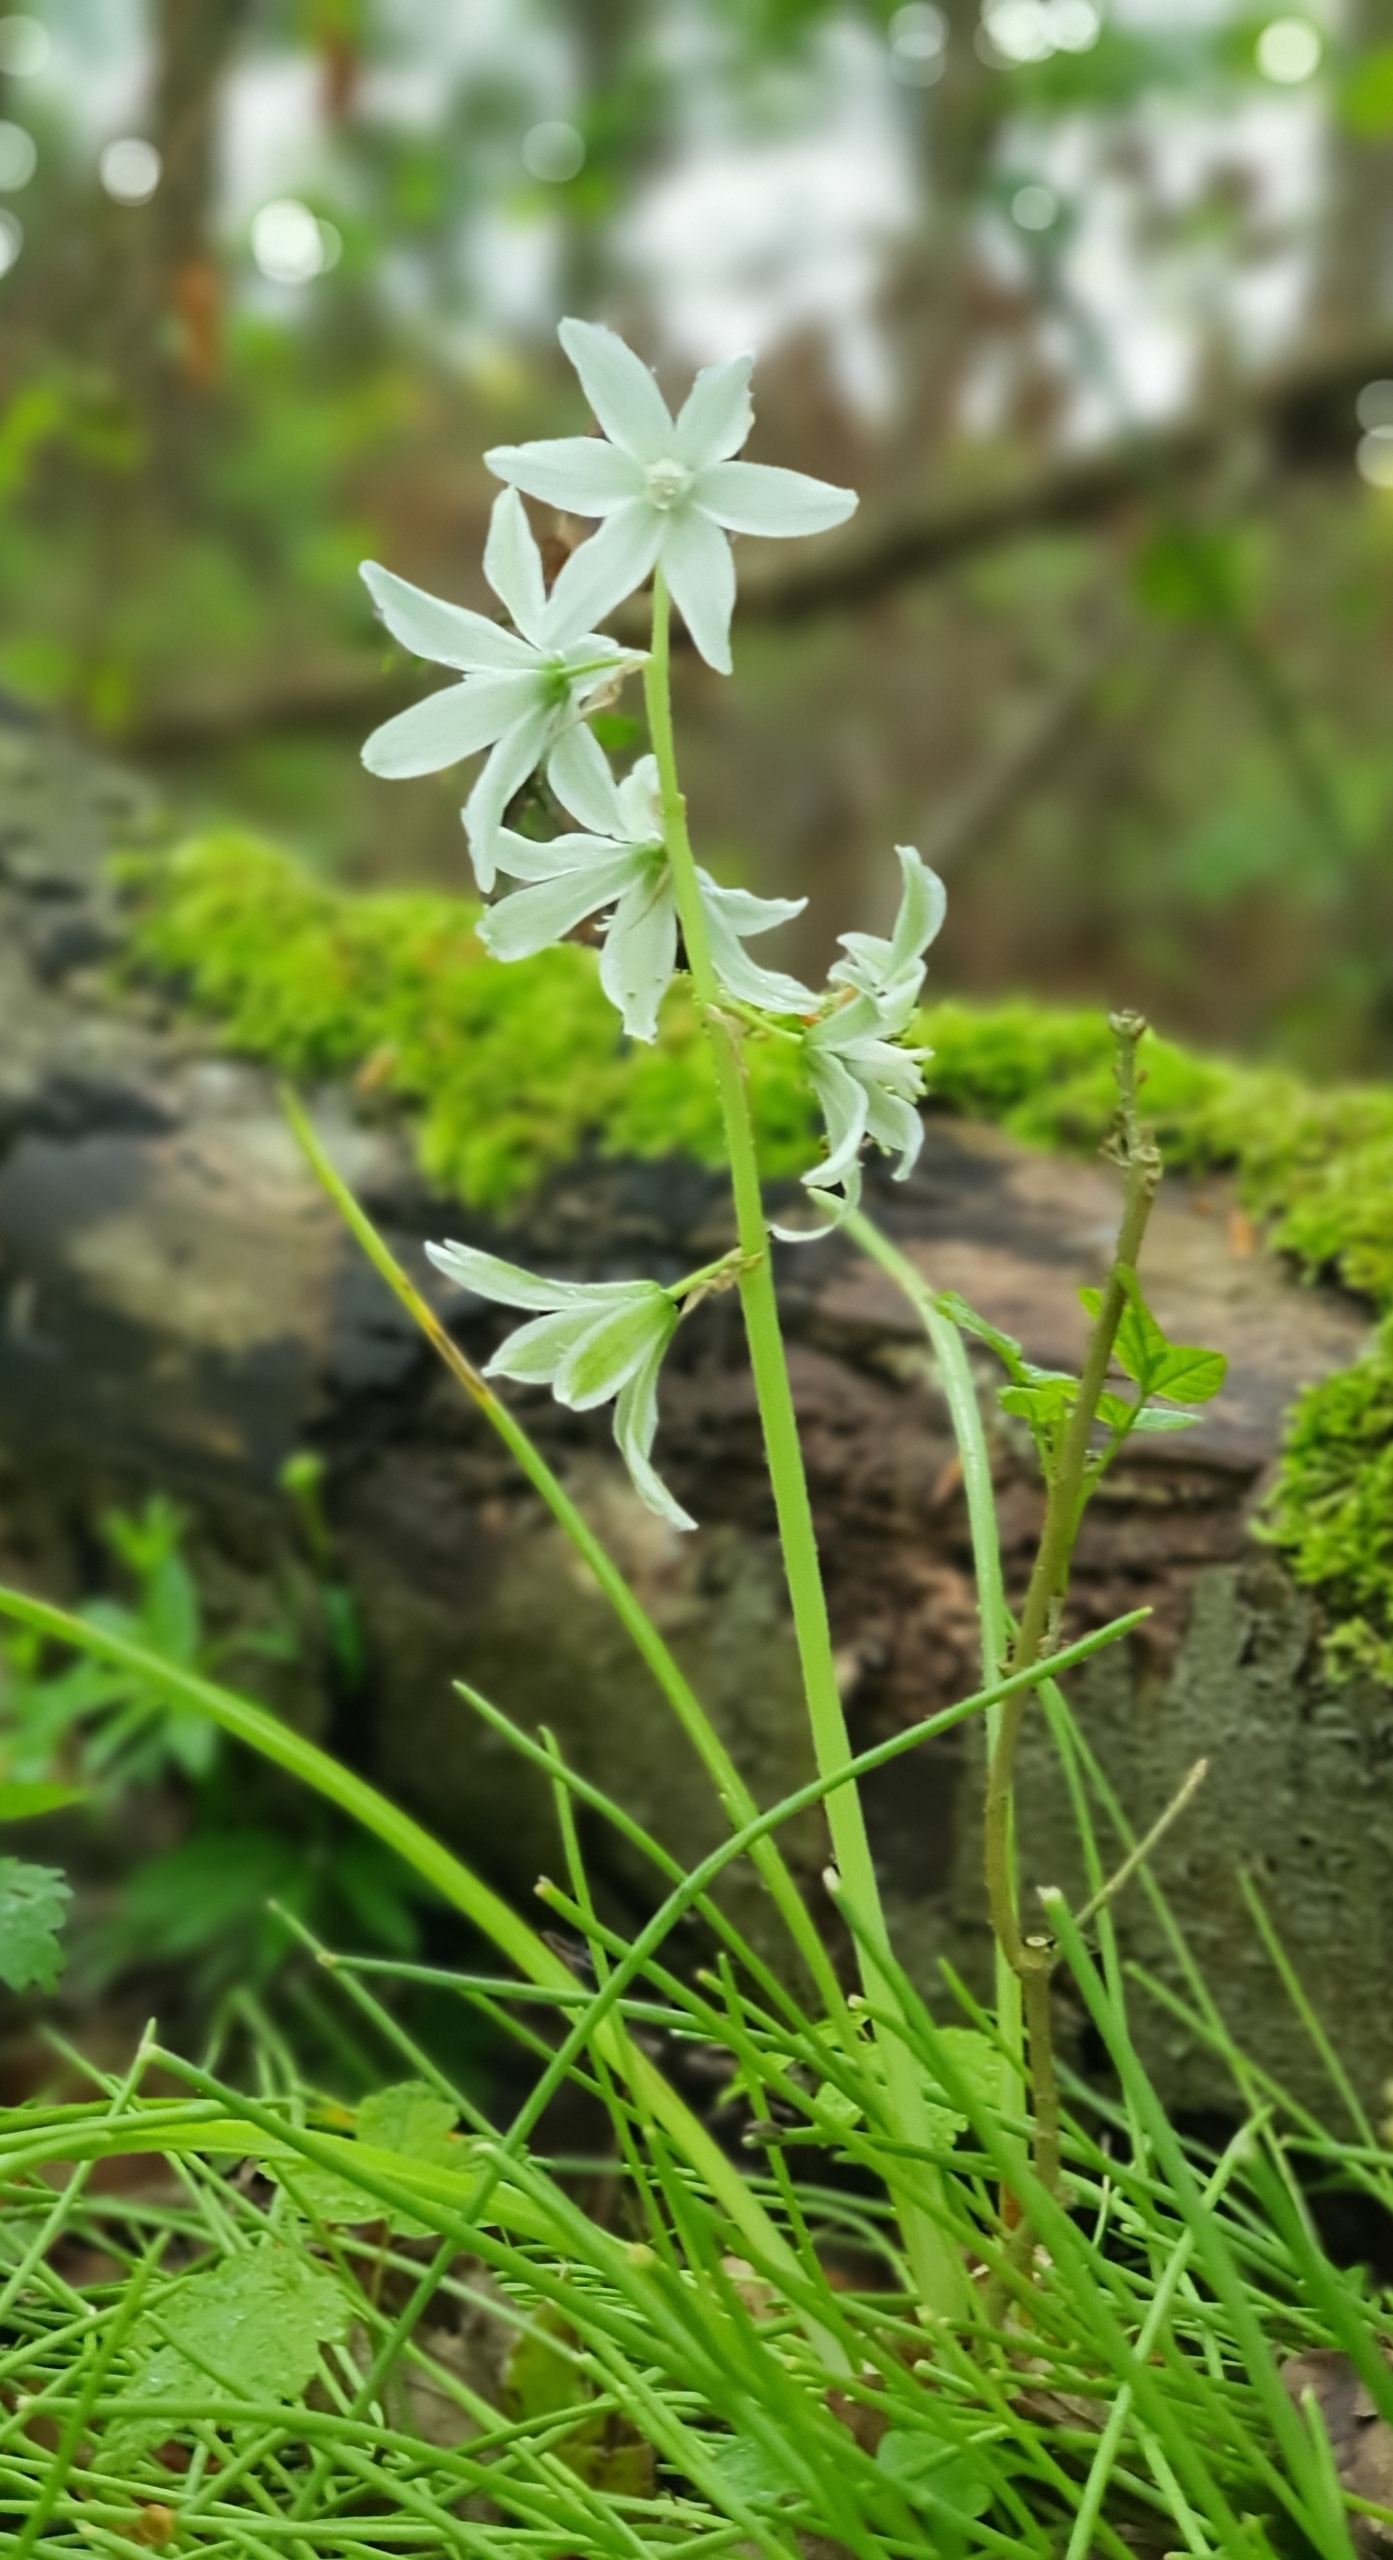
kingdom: Plantae
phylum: Tracheophyta
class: Liliopsida
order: Asparagales
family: Asparagaceae
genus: Ornithogalum
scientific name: Ornithogalum nutans
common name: Nikkende fuglemælk
